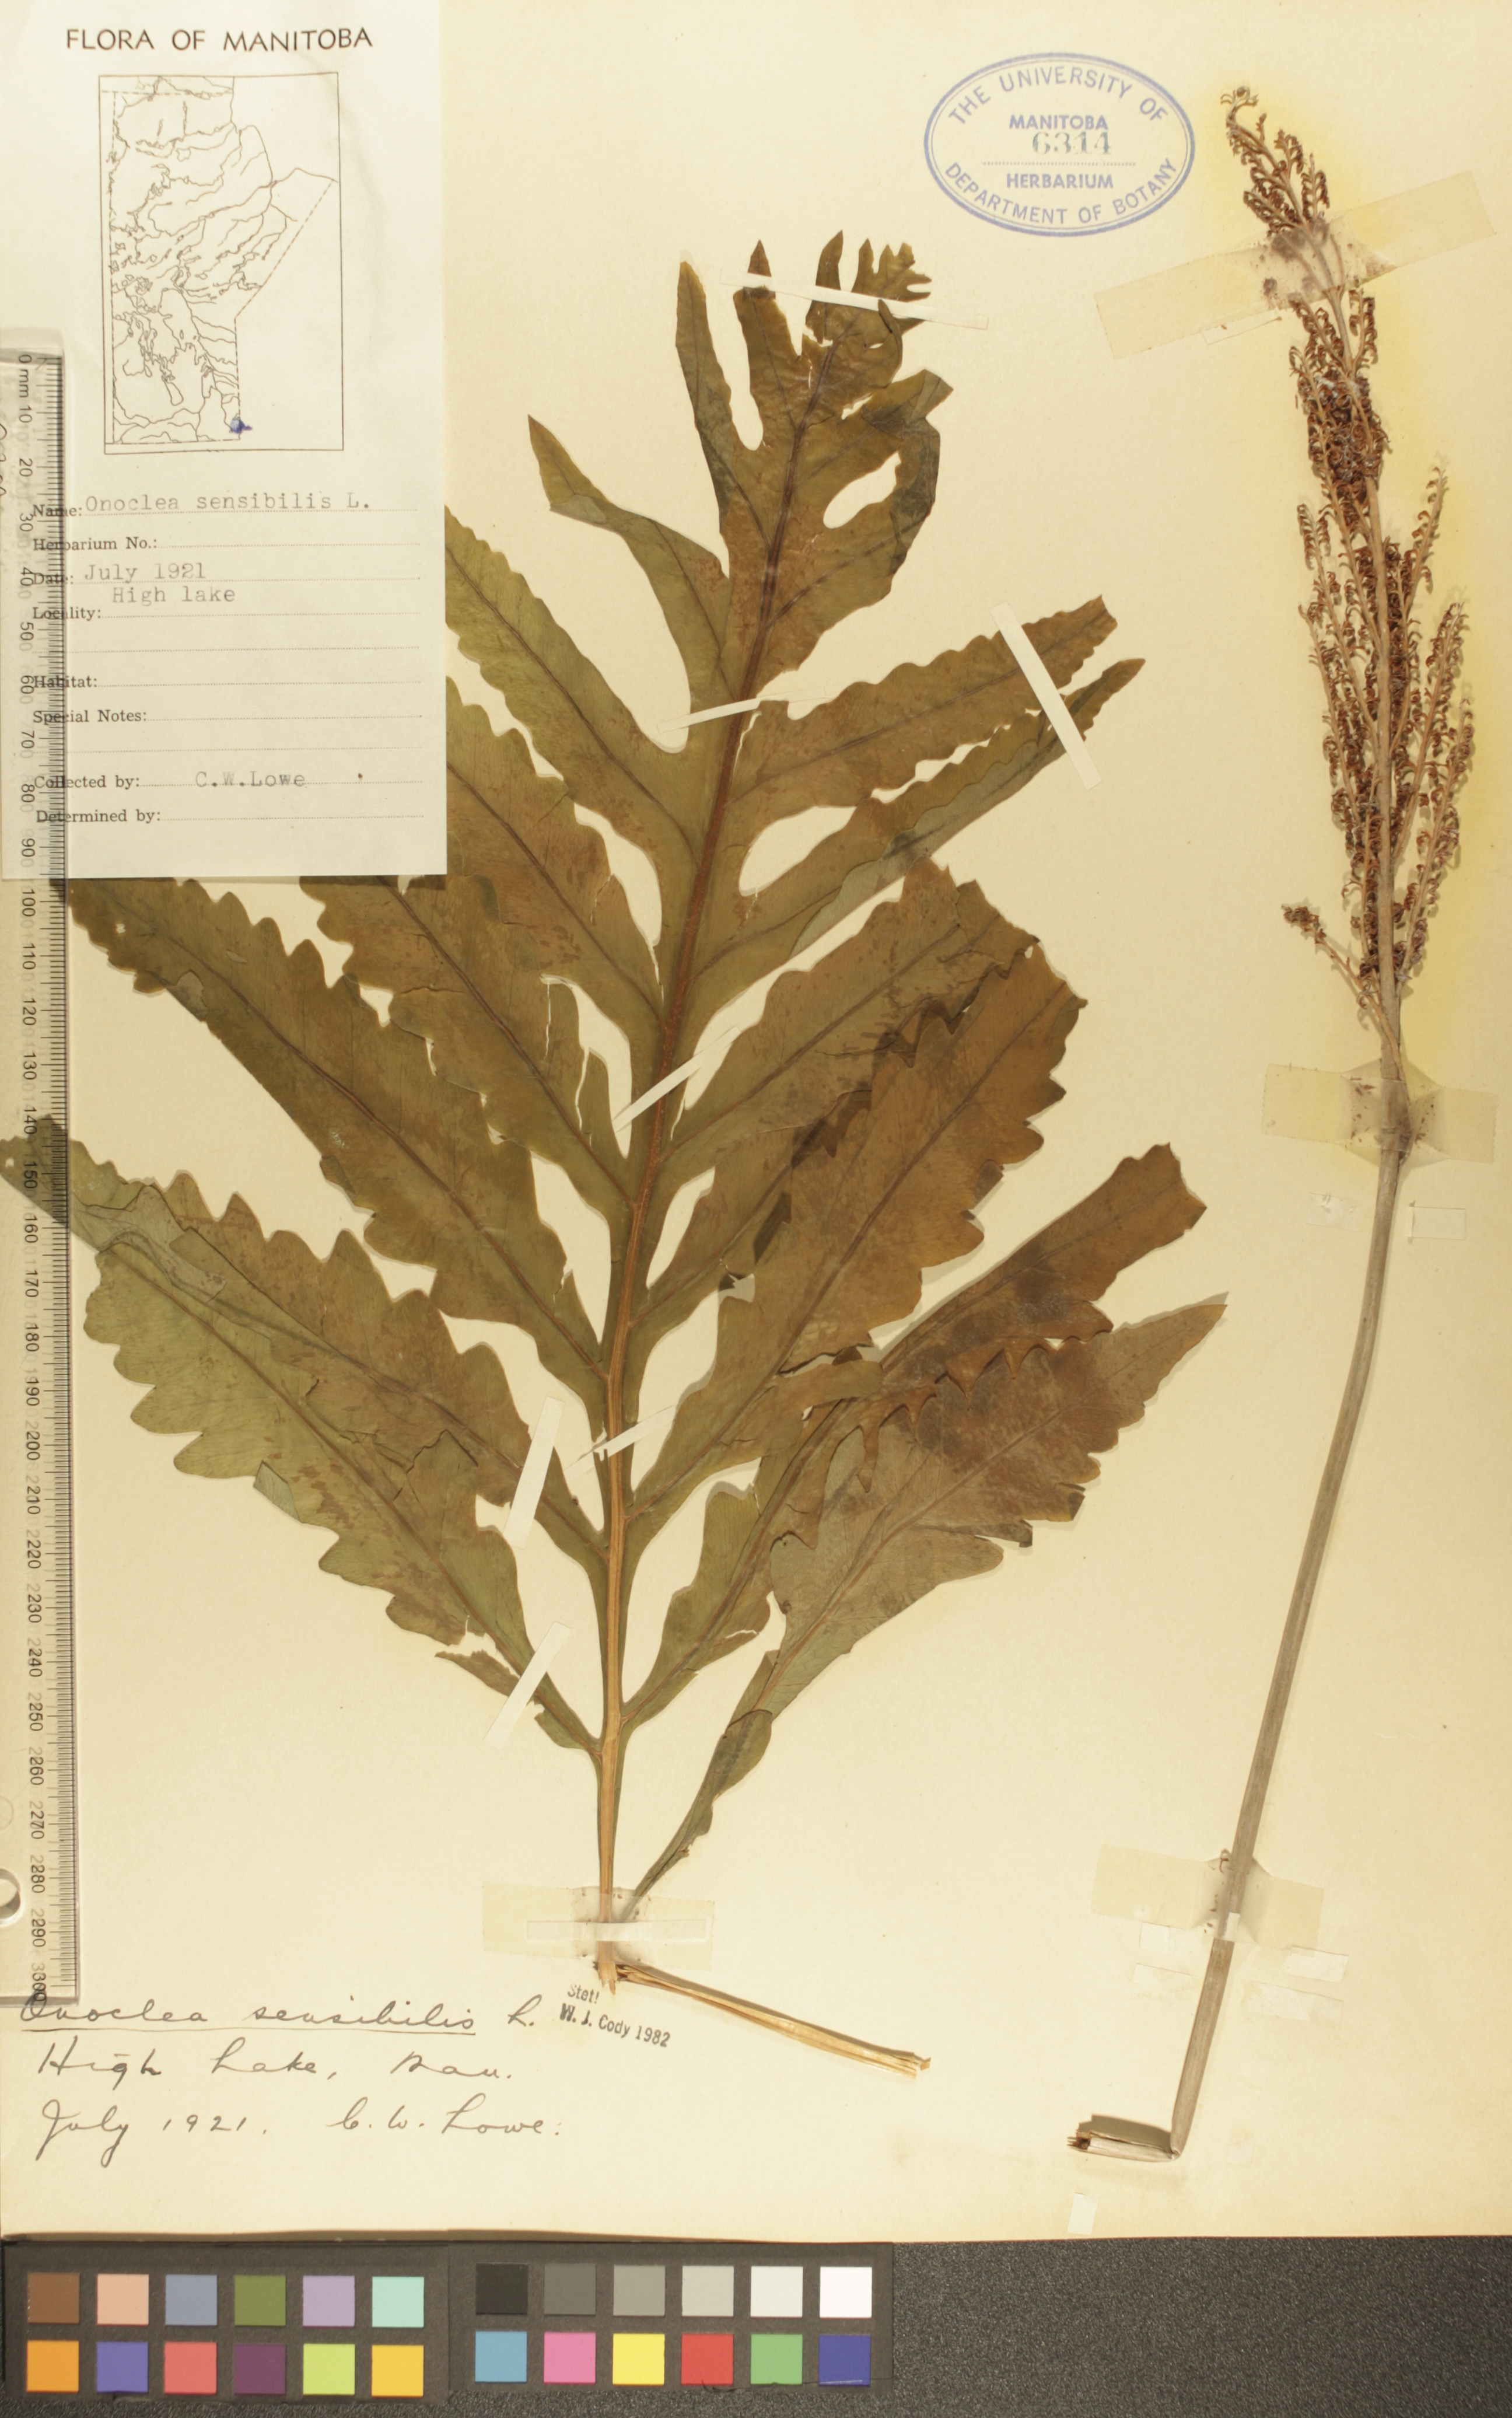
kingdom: Plantae
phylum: Tracheophyta
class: Polypodiopsida
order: Polypodiales
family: Onocleaceae
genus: Onoclea
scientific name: Onoclea sensibilis
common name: Sensitive fern
